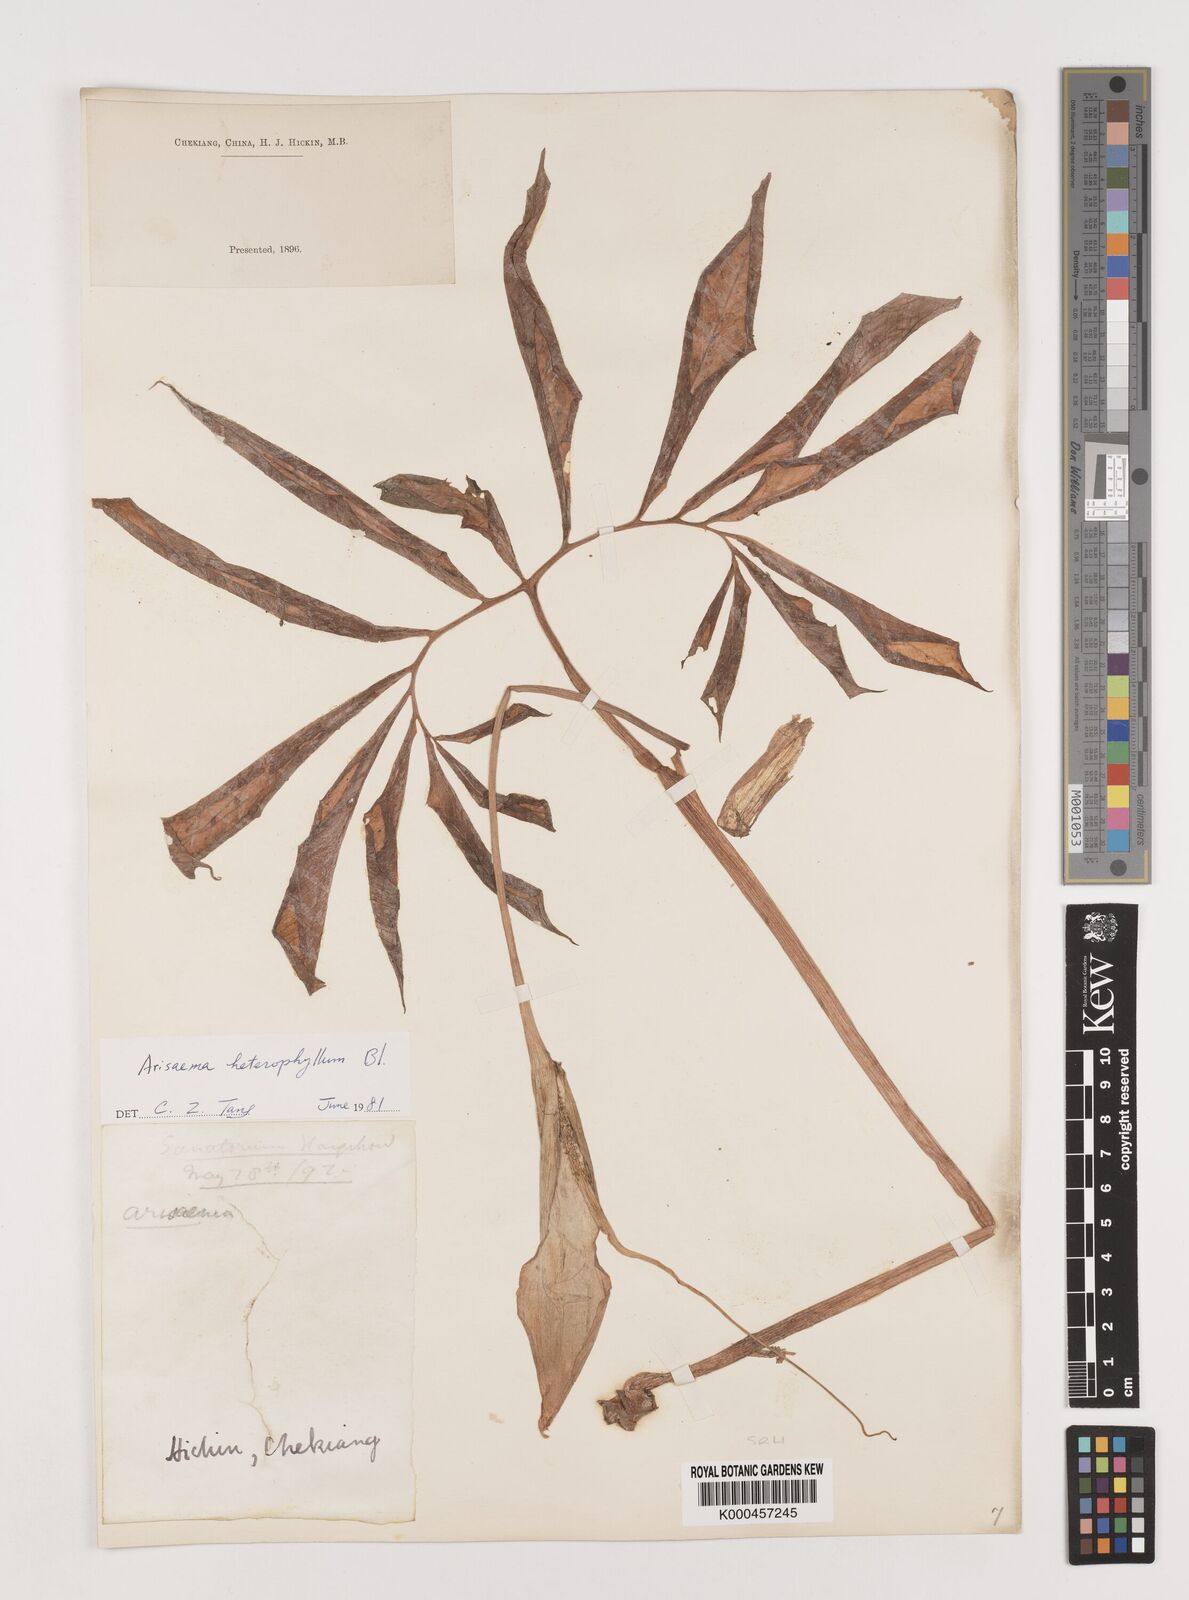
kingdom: Plantae
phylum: Tracheophyta
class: Liliopsida
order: Alismatales
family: Araceae
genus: Arisaema
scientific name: Arisaema heterophyllum
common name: Dancing crane cobra lily
